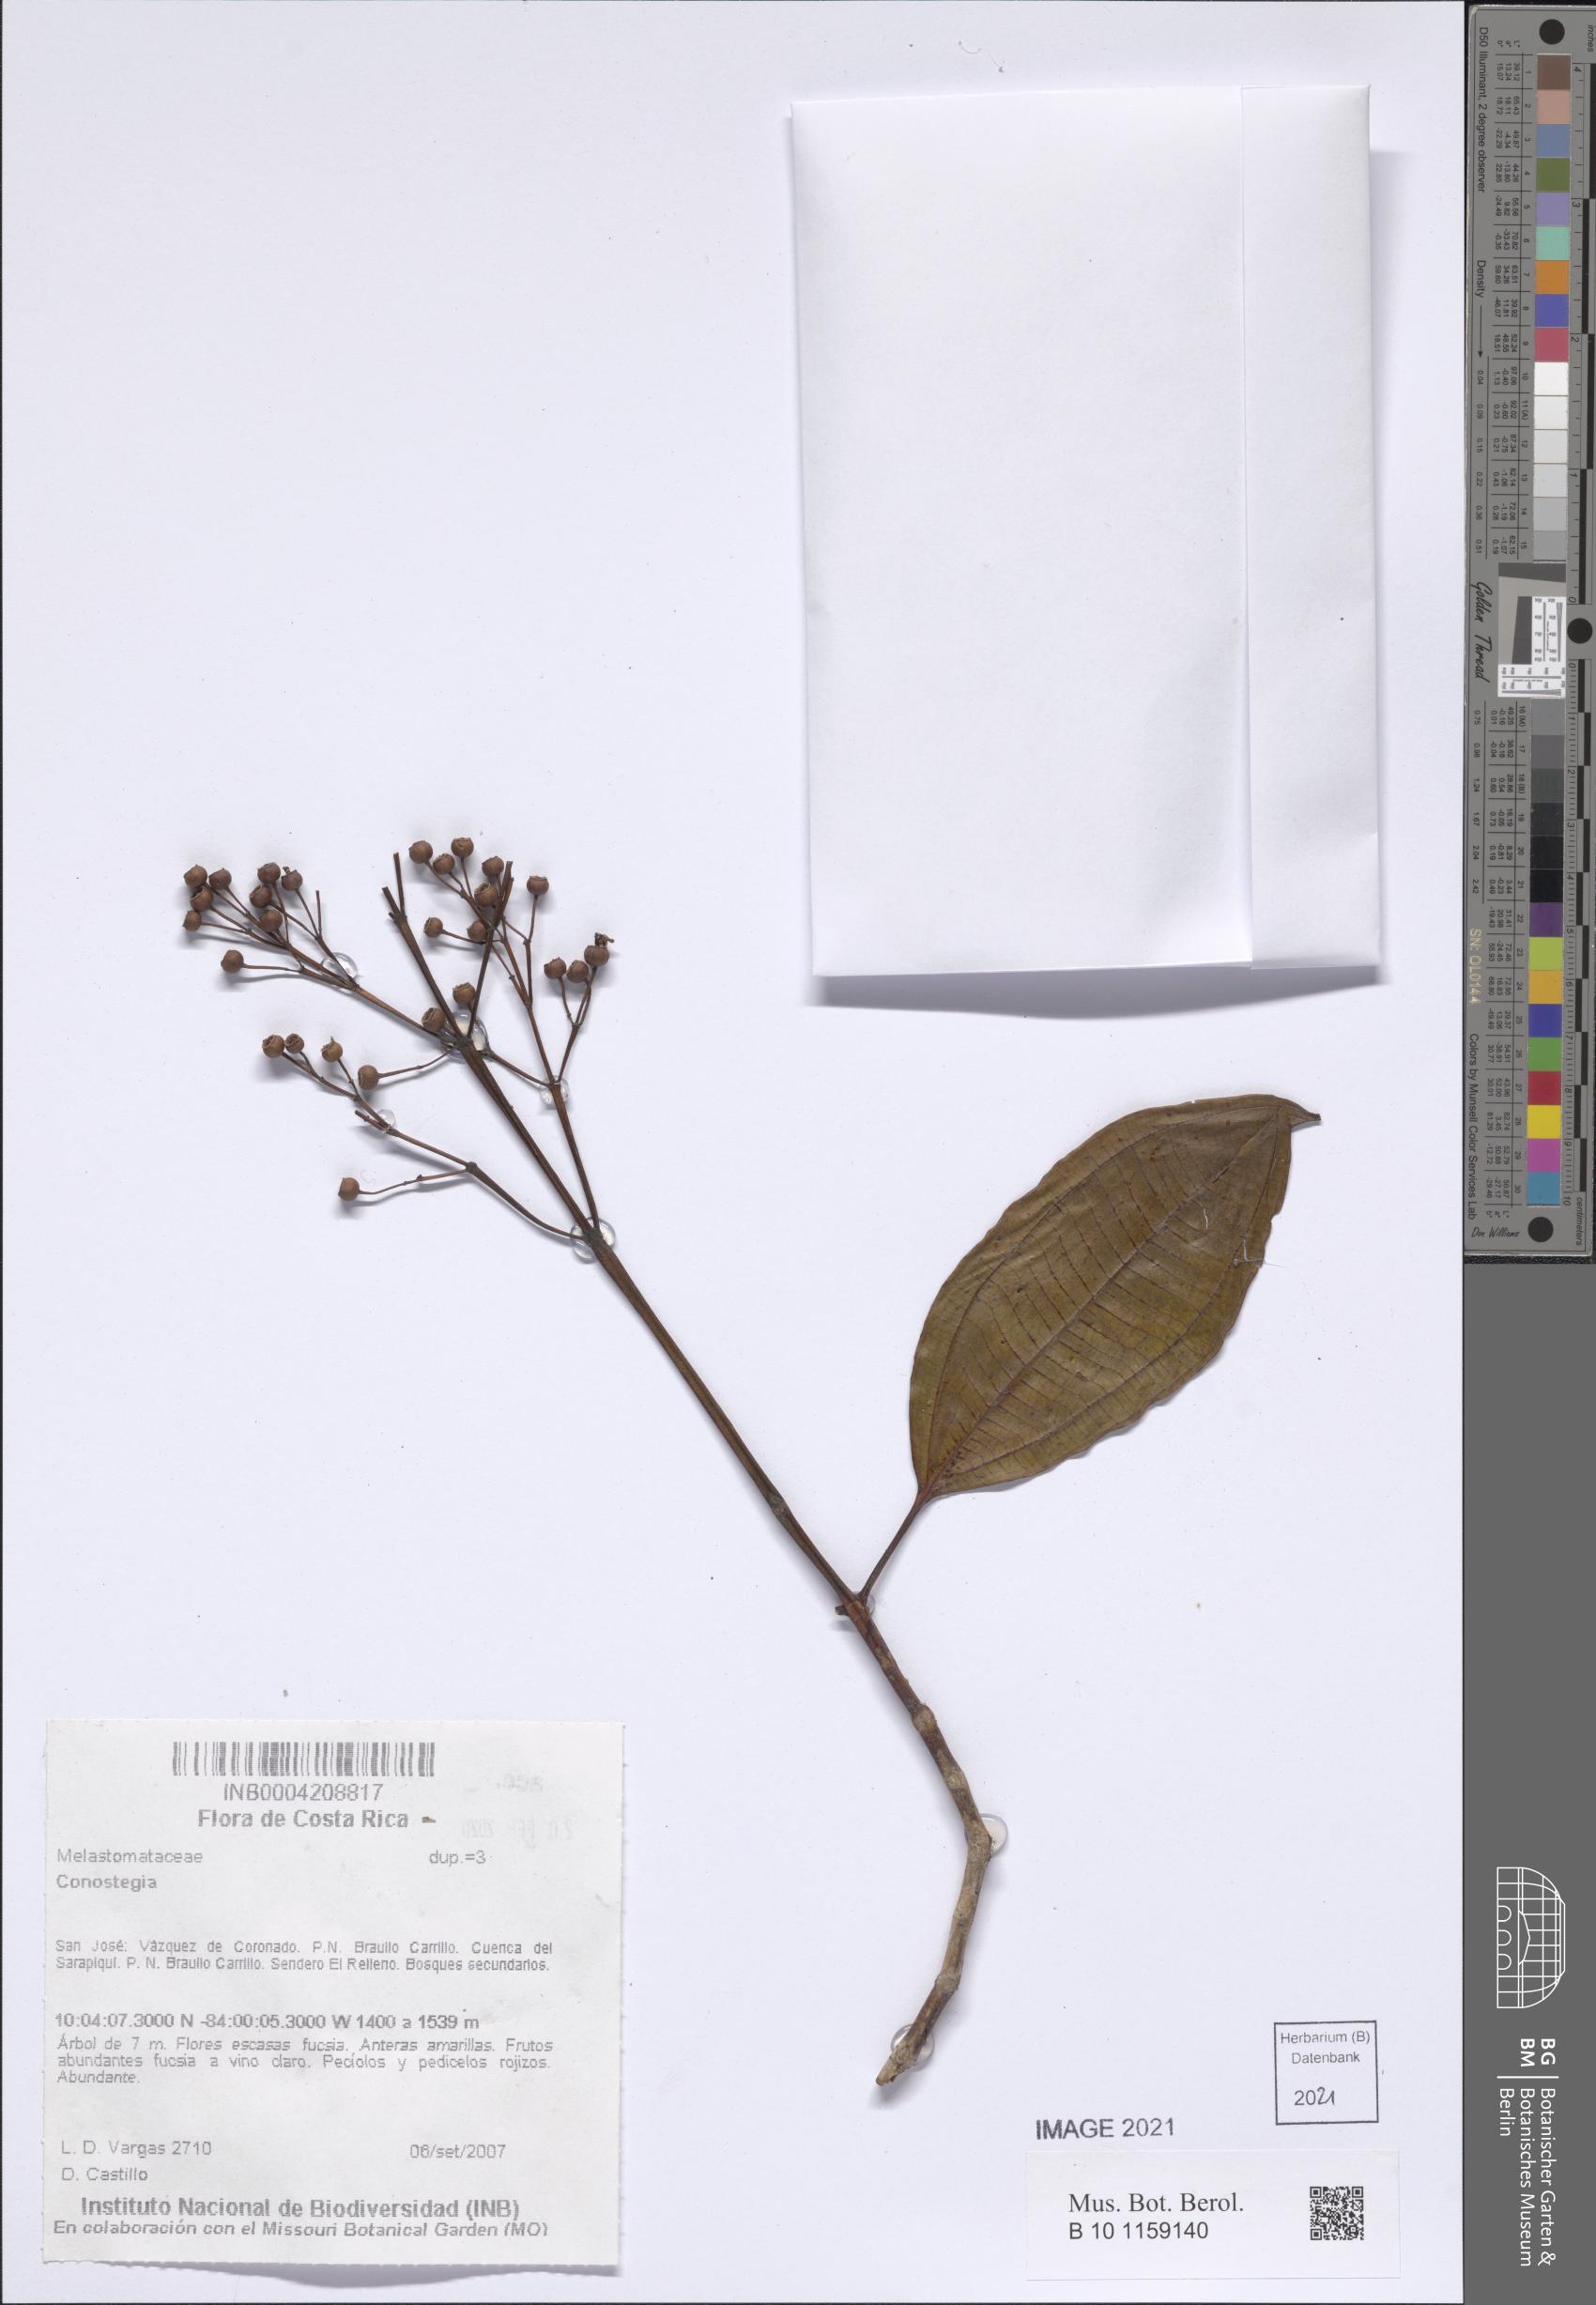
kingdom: Plantae
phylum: Tracheophyta
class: Magnoliopsida
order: Myrtales
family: Melastomataceae
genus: Miconia
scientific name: Miconia
